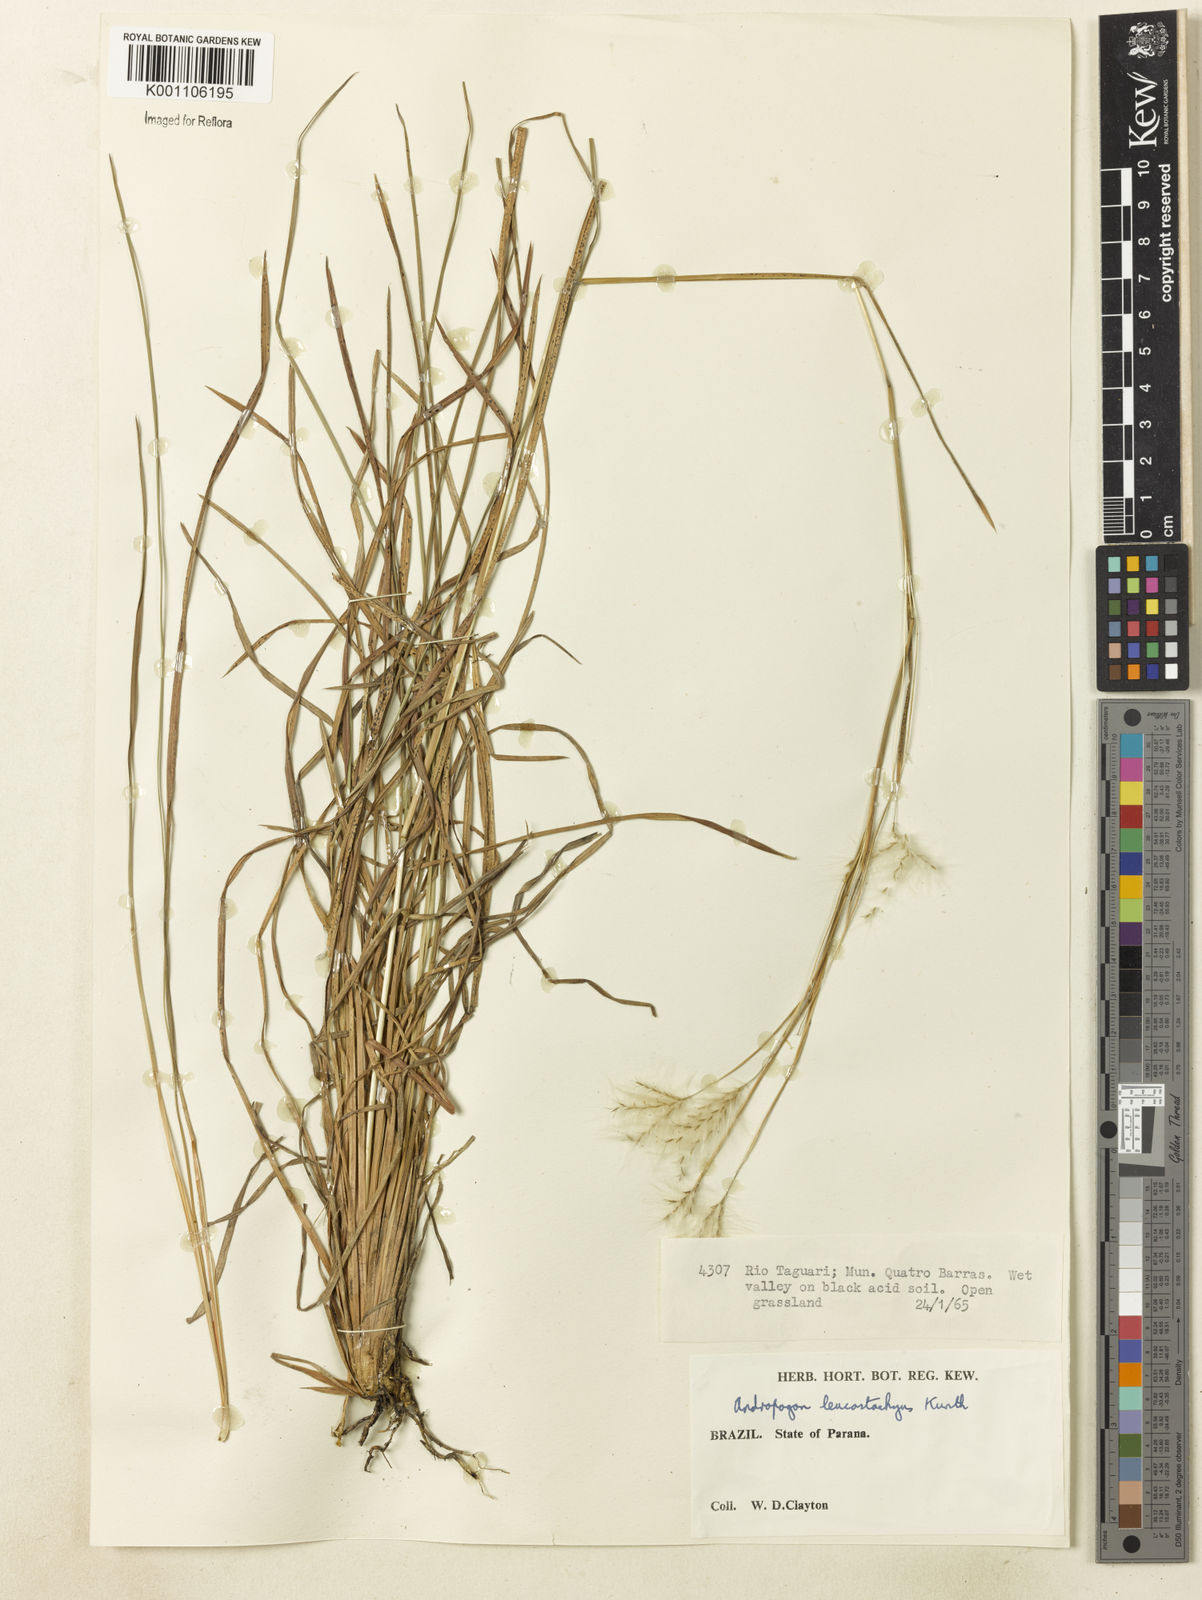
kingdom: Plantae
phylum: Tracheophyta
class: Liliopsida
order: Poales
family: Poaceae
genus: Andropogon
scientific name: Andropogon leucostachyus
